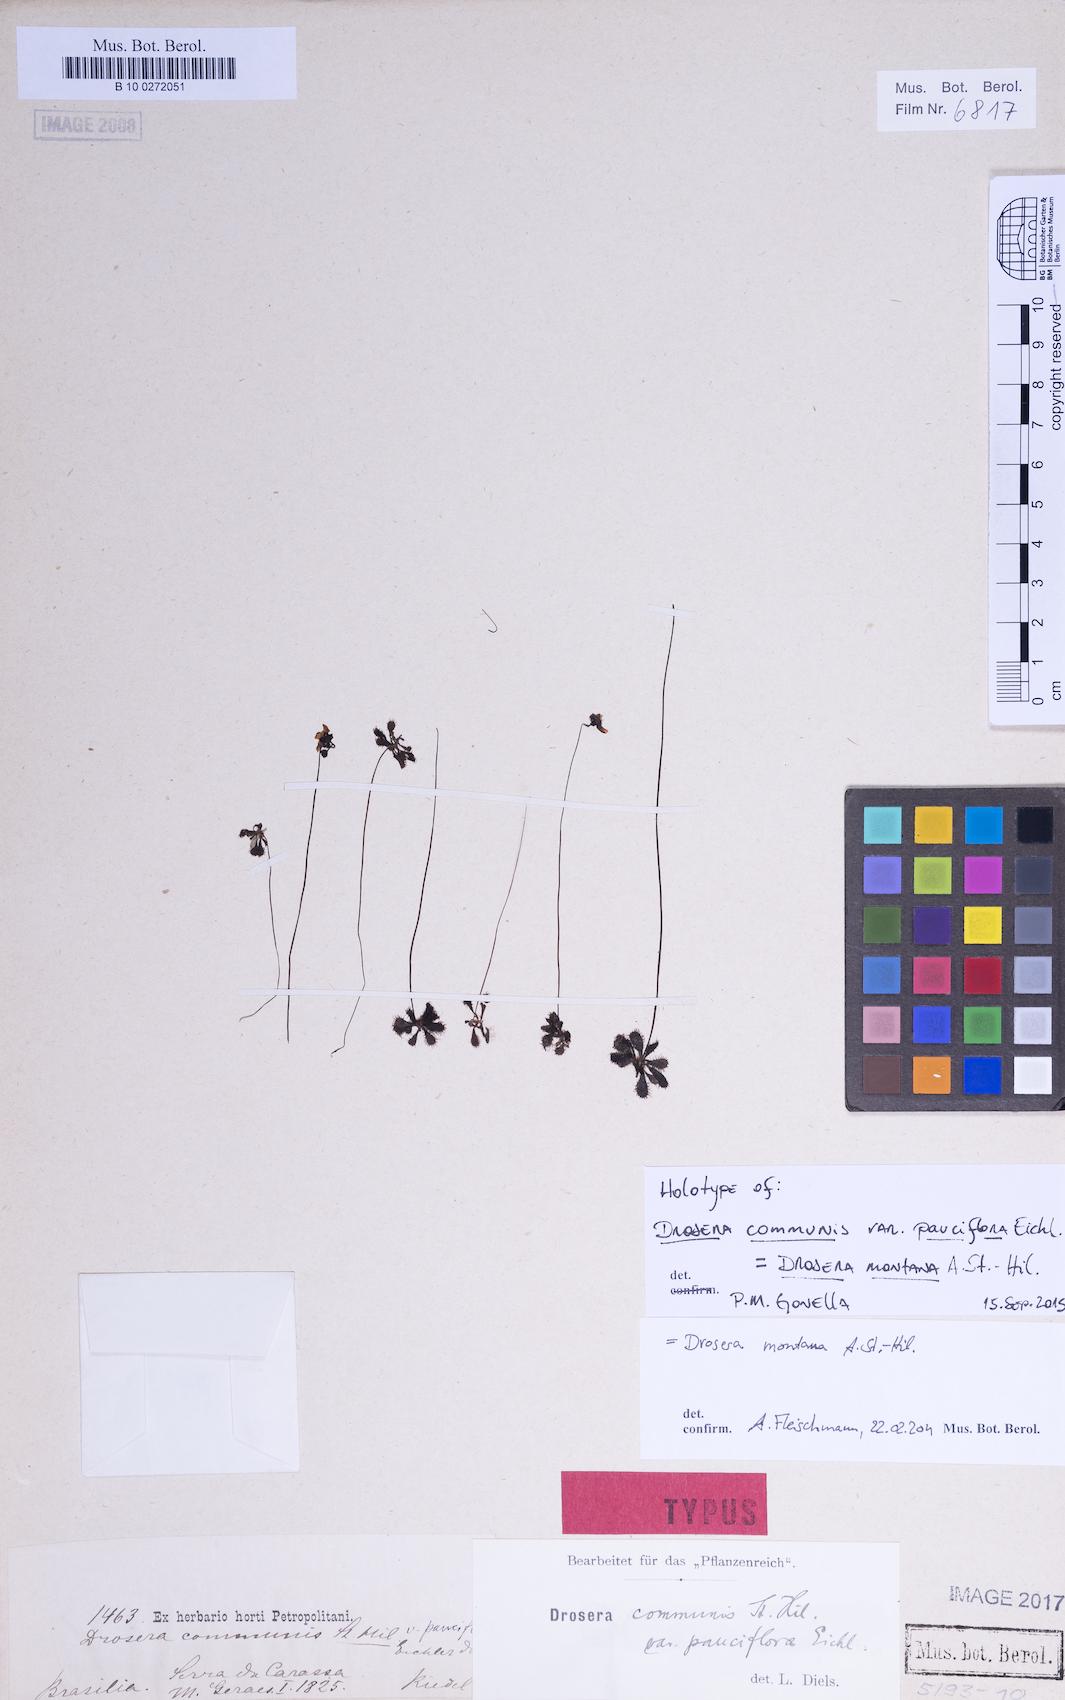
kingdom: Plantae
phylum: Tracheophyta
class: Magnoliopsida
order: Caryophyllales
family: Droseraceae
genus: Drosera
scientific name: Drosera montana
